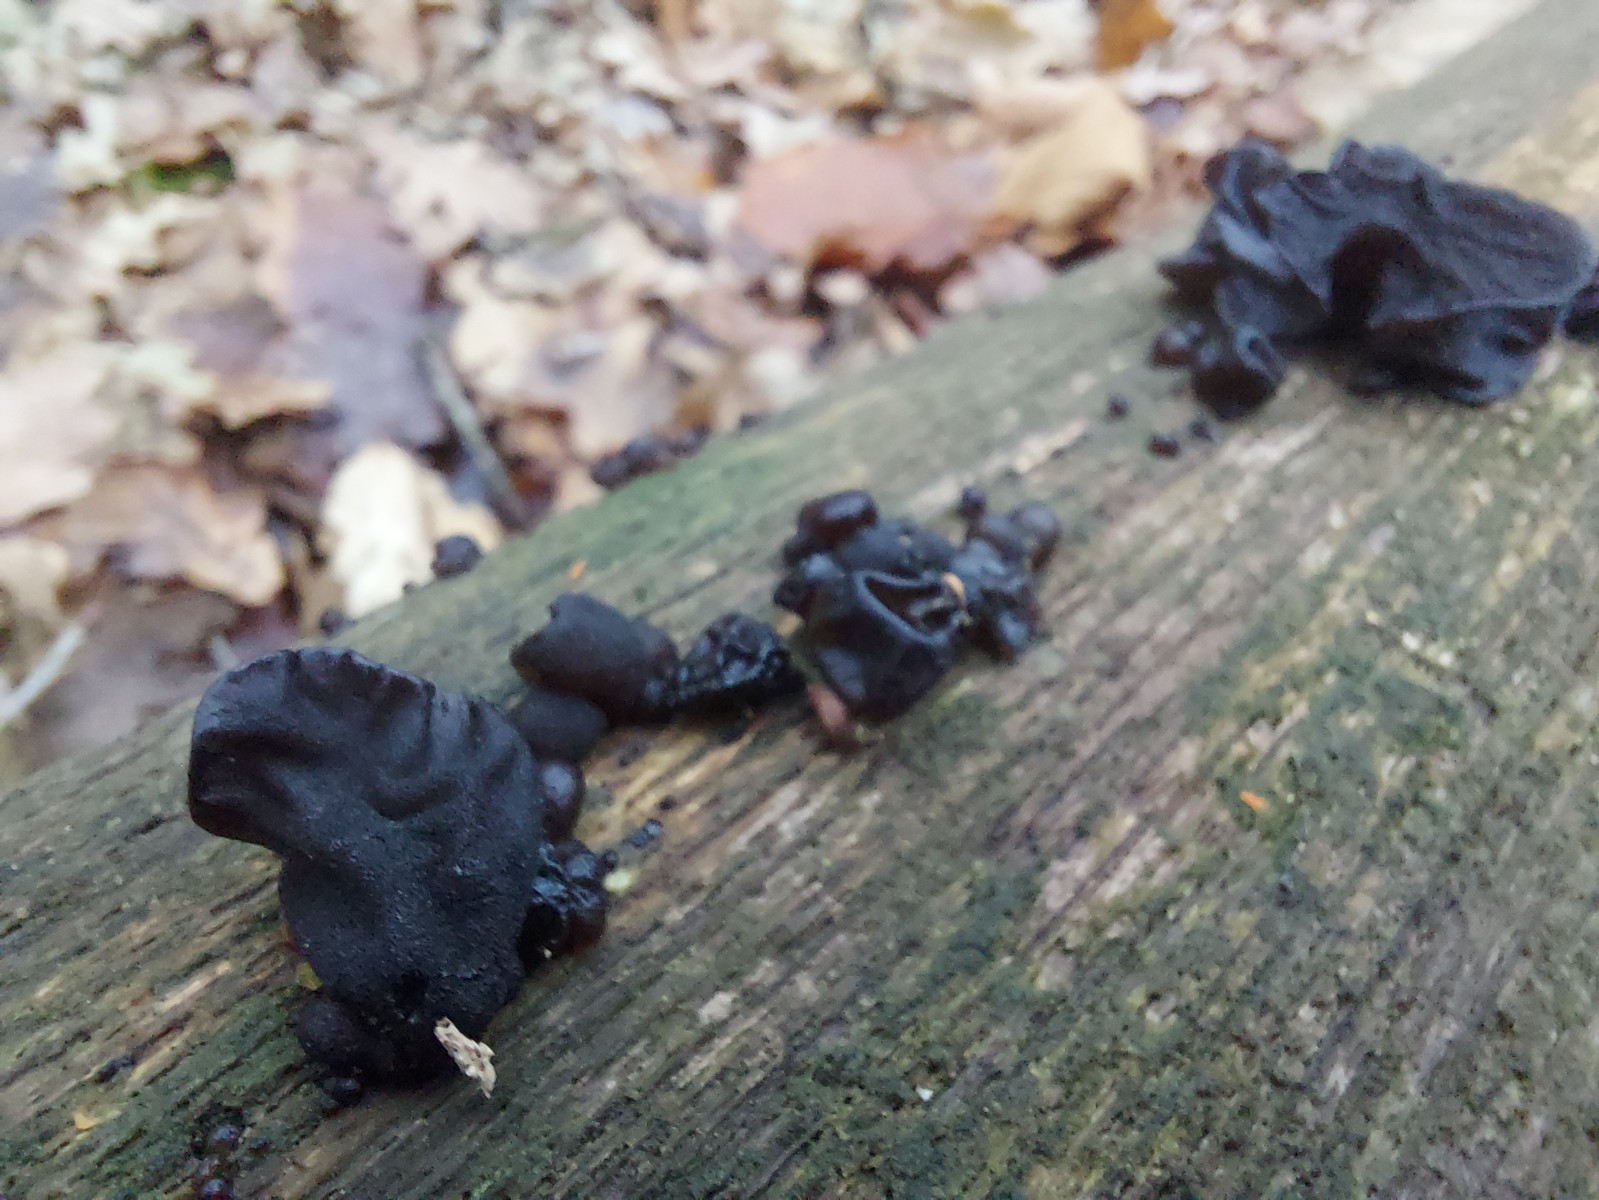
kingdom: Fungi
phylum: Basidiomycota
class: Agaricomycetes
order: Auriculariales
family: Auriculariaceae
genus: Exidia
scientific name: Exidia glandulosa
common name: ege-bævretop
